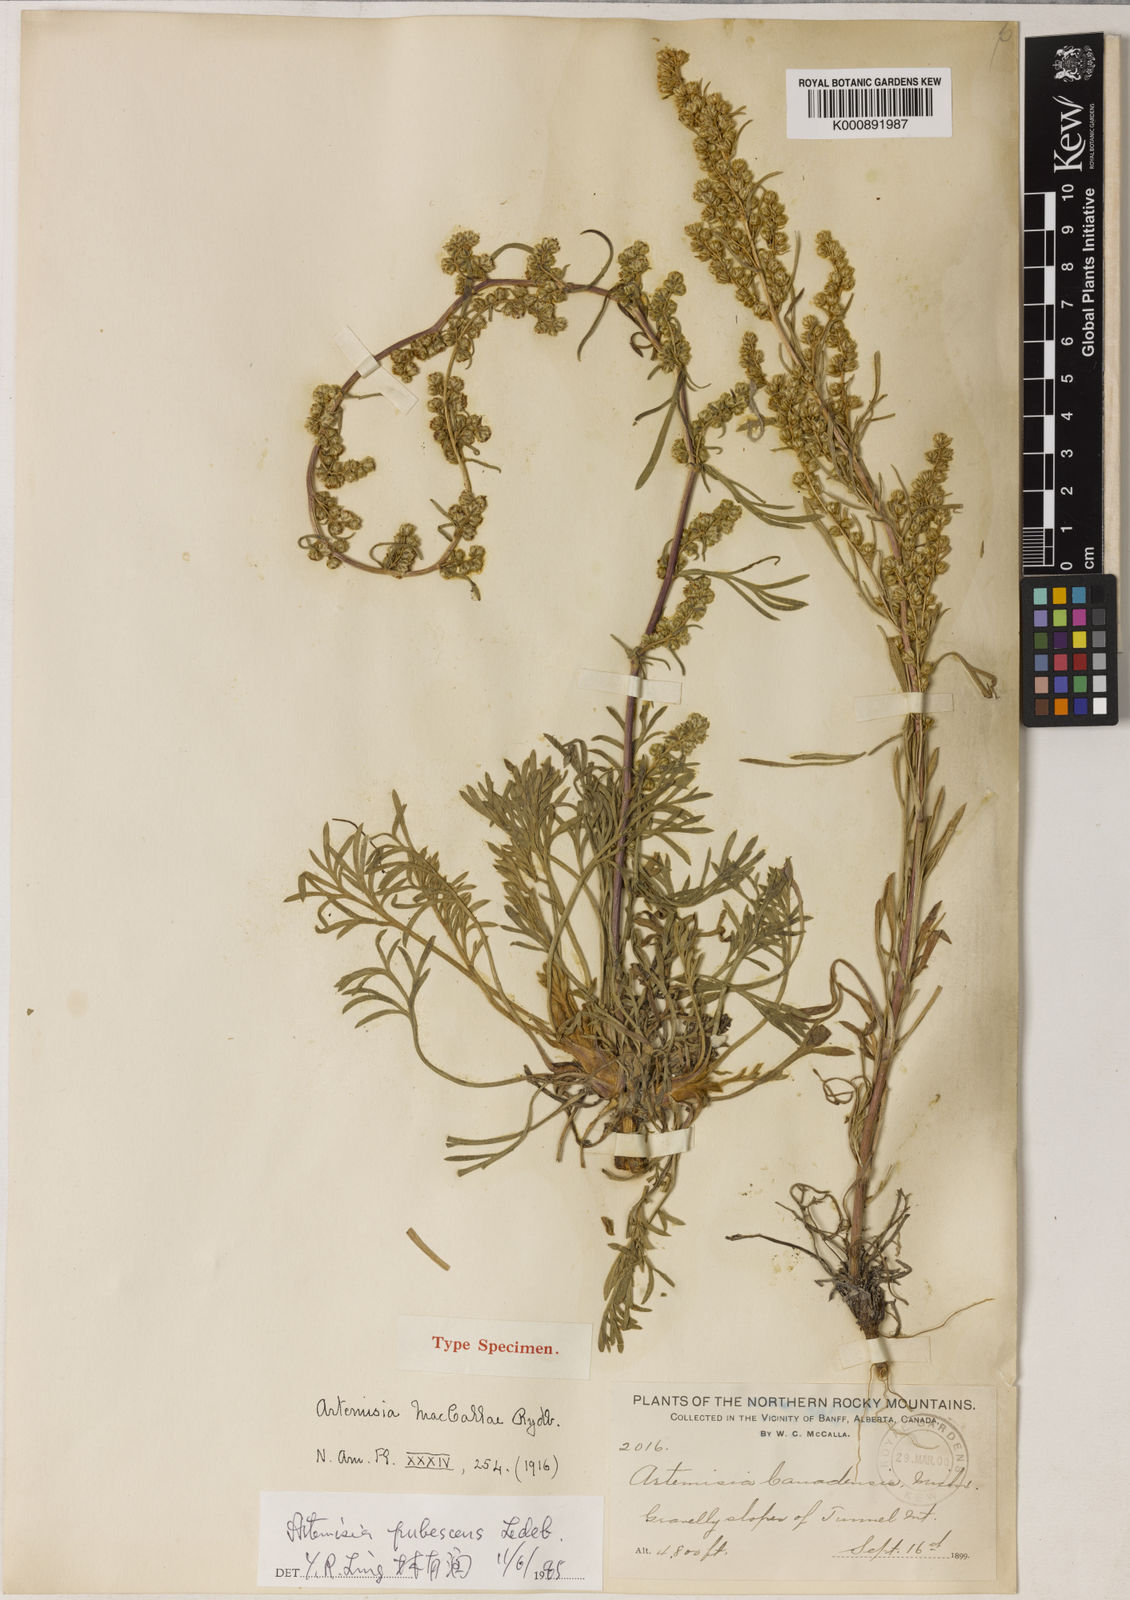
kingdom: Plantae
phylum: Tracheophyta
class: Magnoliopsida
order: Asterales
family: Asteraceae
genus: Artemisia
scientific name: Artemisia campestris
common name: Field wormwood
